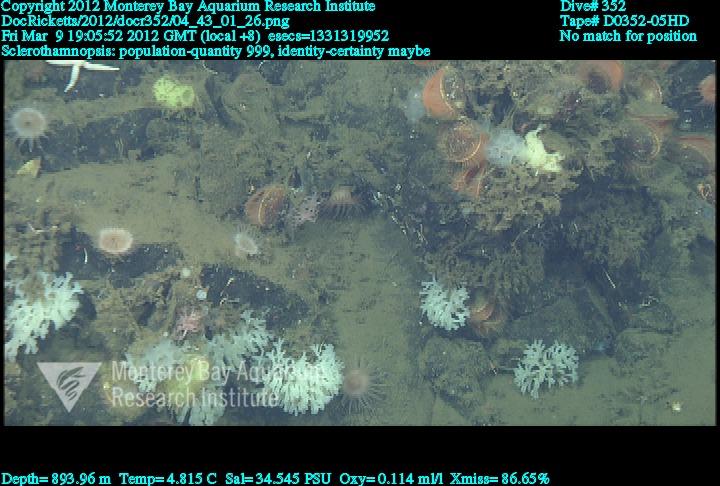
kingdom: Animalia
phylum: Porifera
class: Hexactinellida
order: Sceptrulophora
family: Tretodictyidae
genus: Sclerothamnopsis
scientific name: Sclerothamnopsis
